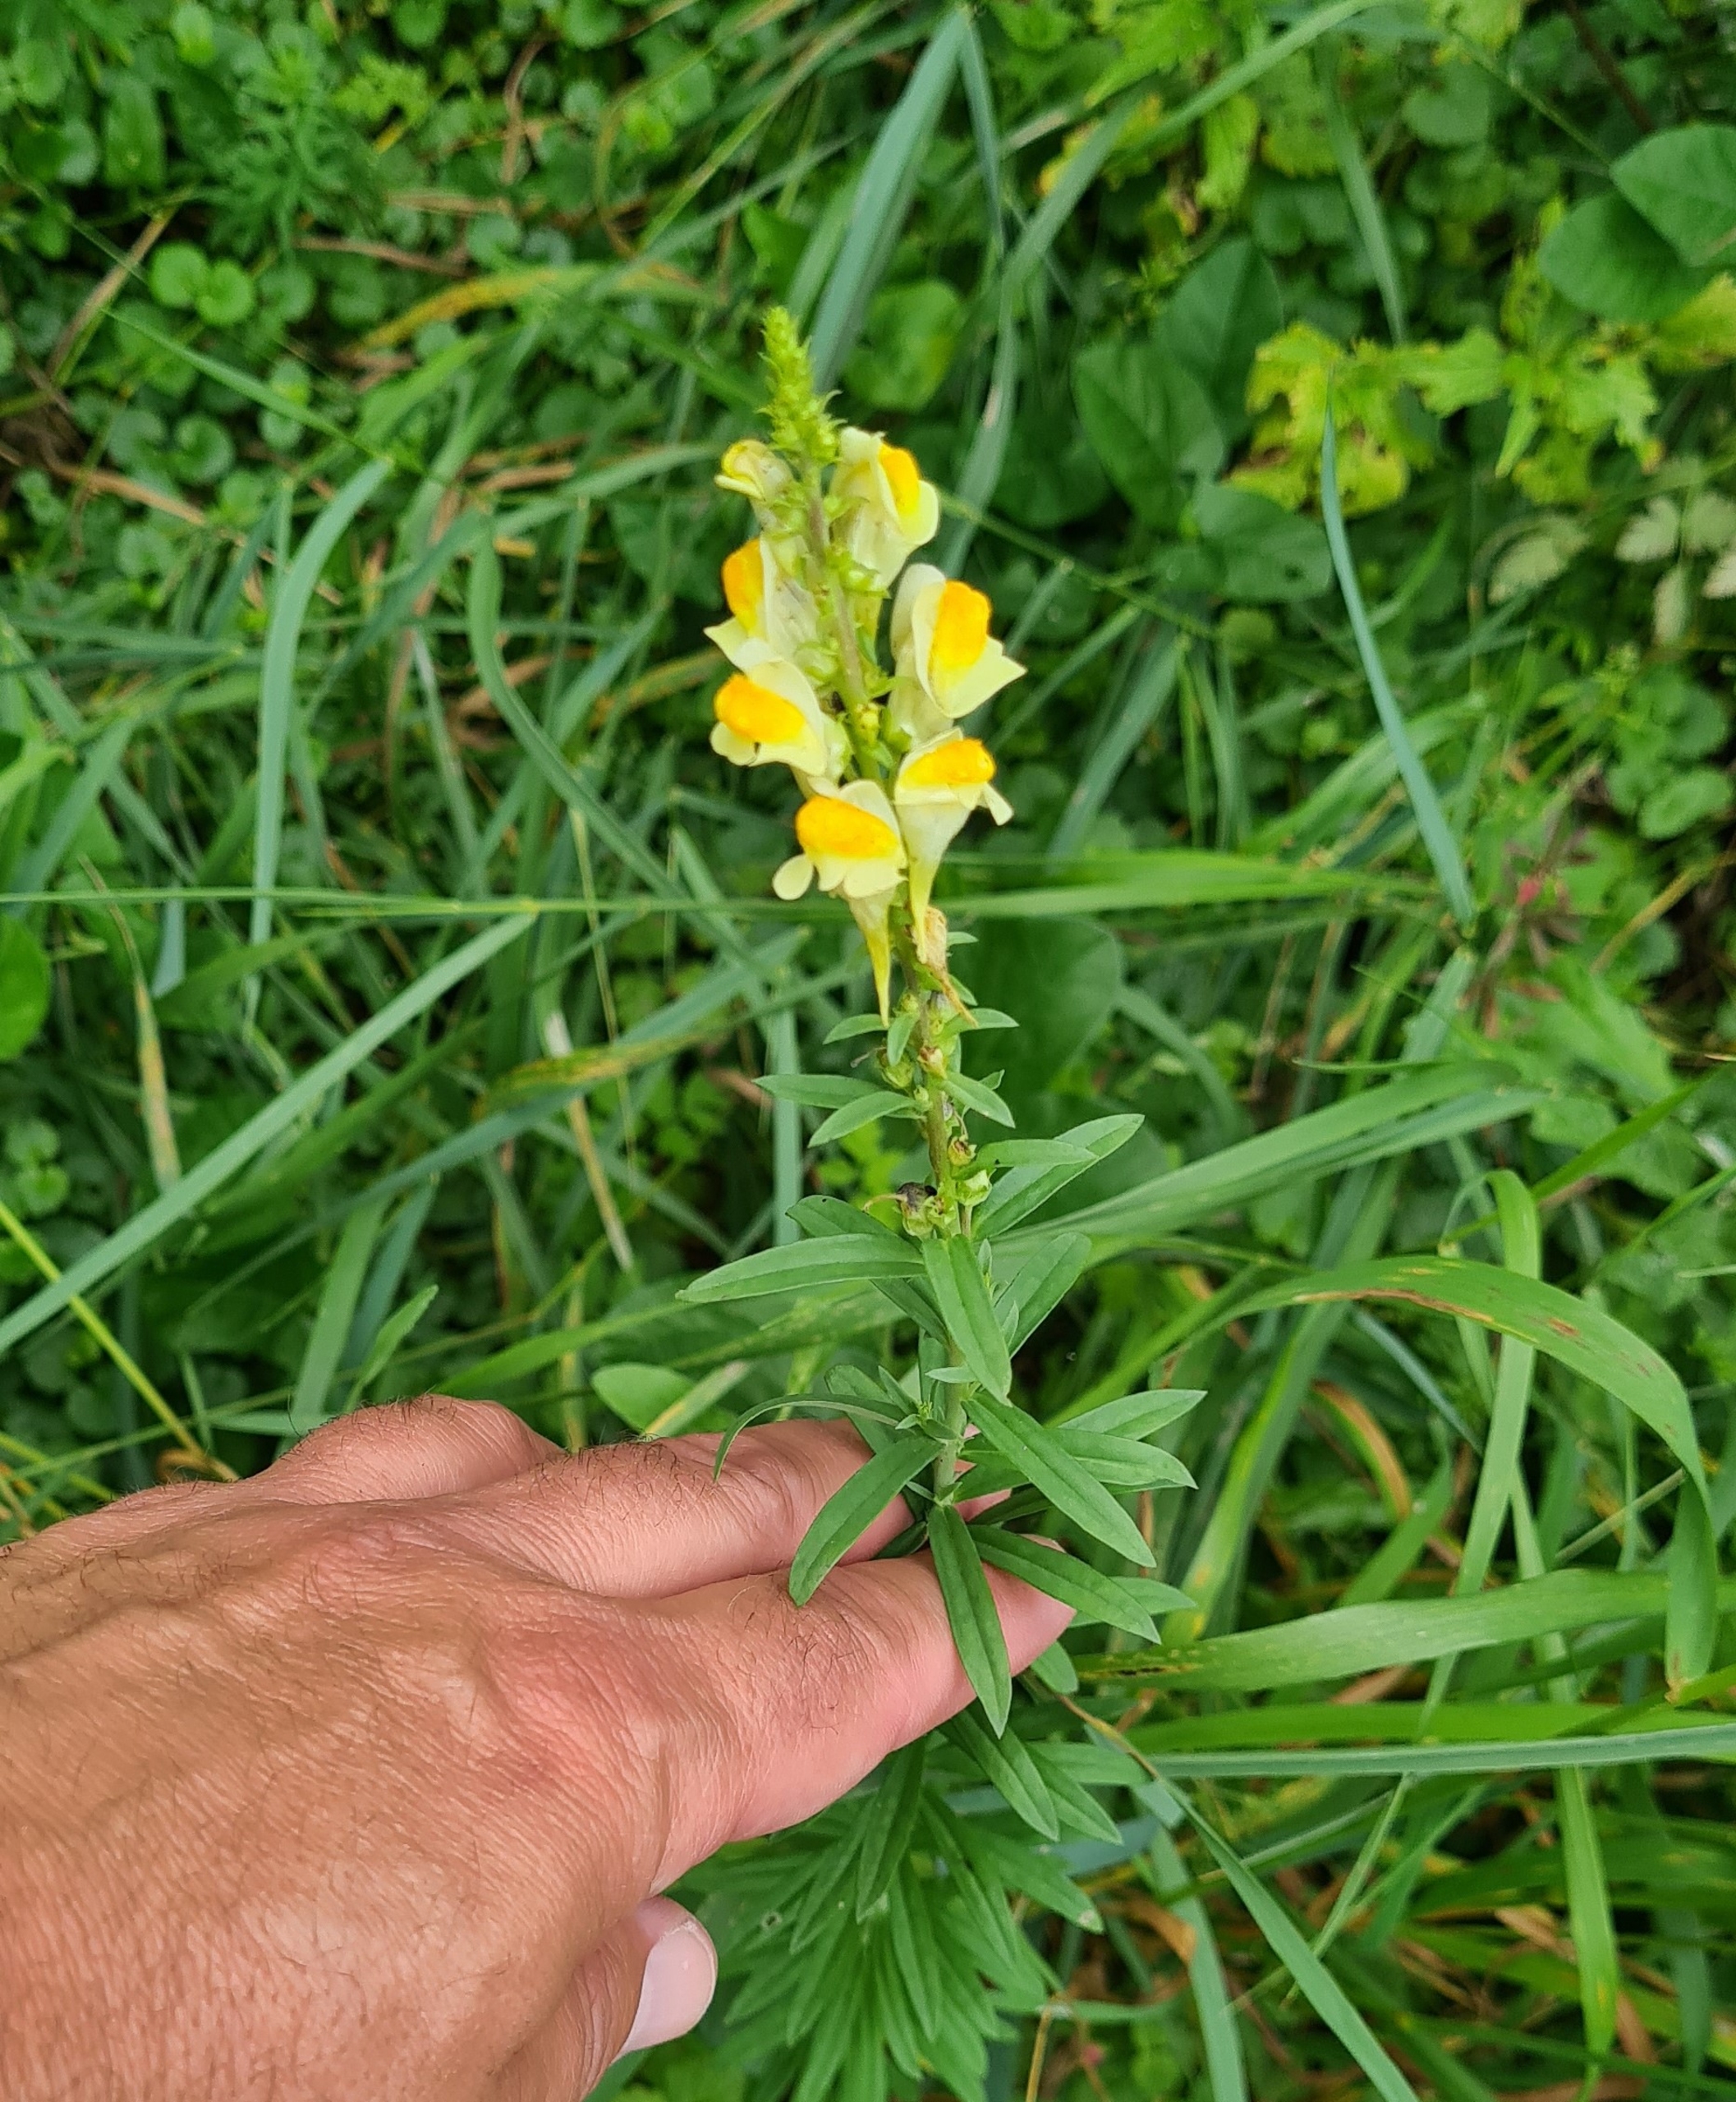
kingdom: Plantae
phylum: Tracheophyta
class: Magnoliopsida
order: Lamiales
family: Plantaginaceae
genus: Linaria
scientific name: Linaria vulgaris
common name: Almindelig torskemund
